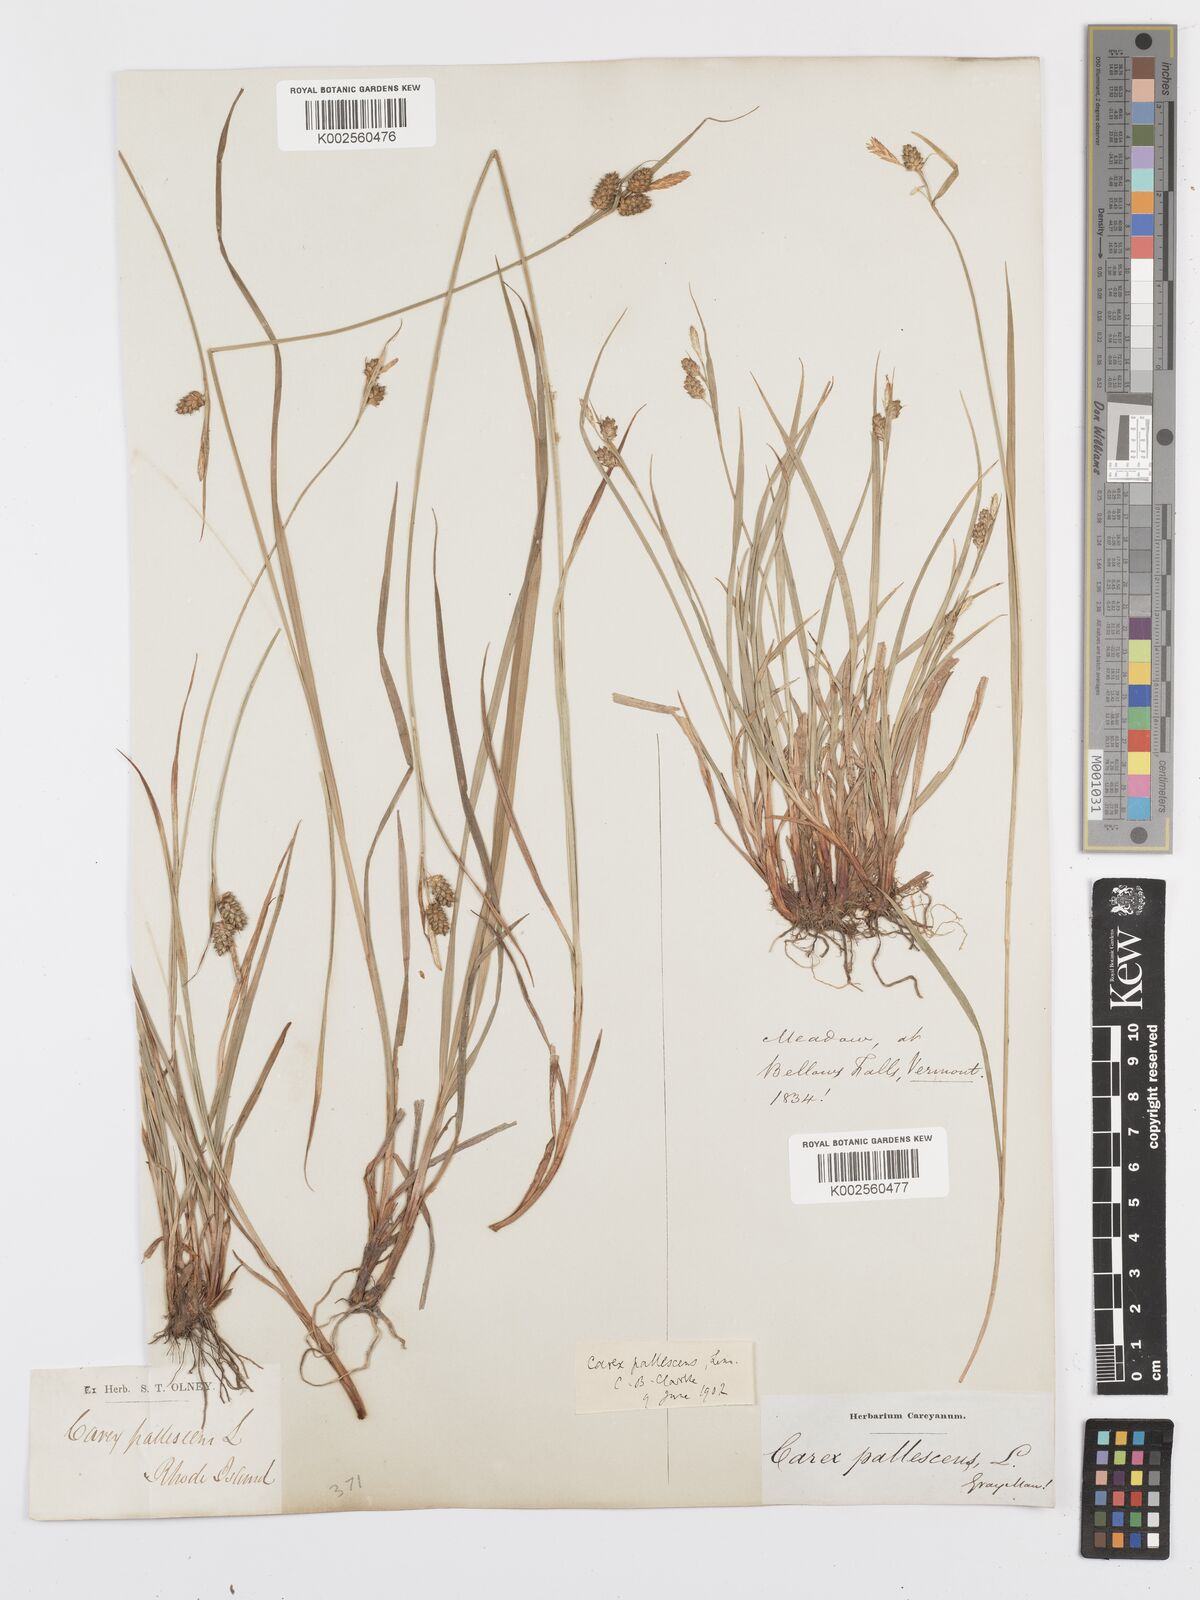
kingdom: Plantae
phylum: Tracheophyta
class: Liliopsida
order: Poales
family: Cyperaceae
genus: Carex
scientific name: Carex pallescens
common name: Pale sedge
